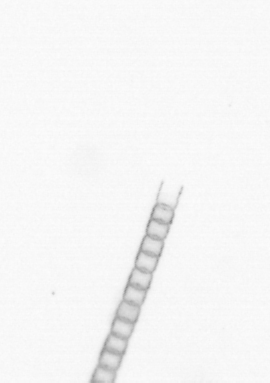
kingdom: Chromista
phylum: Ochrophyta
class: Bacillariophyceae
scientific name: Bacillariophyceae
